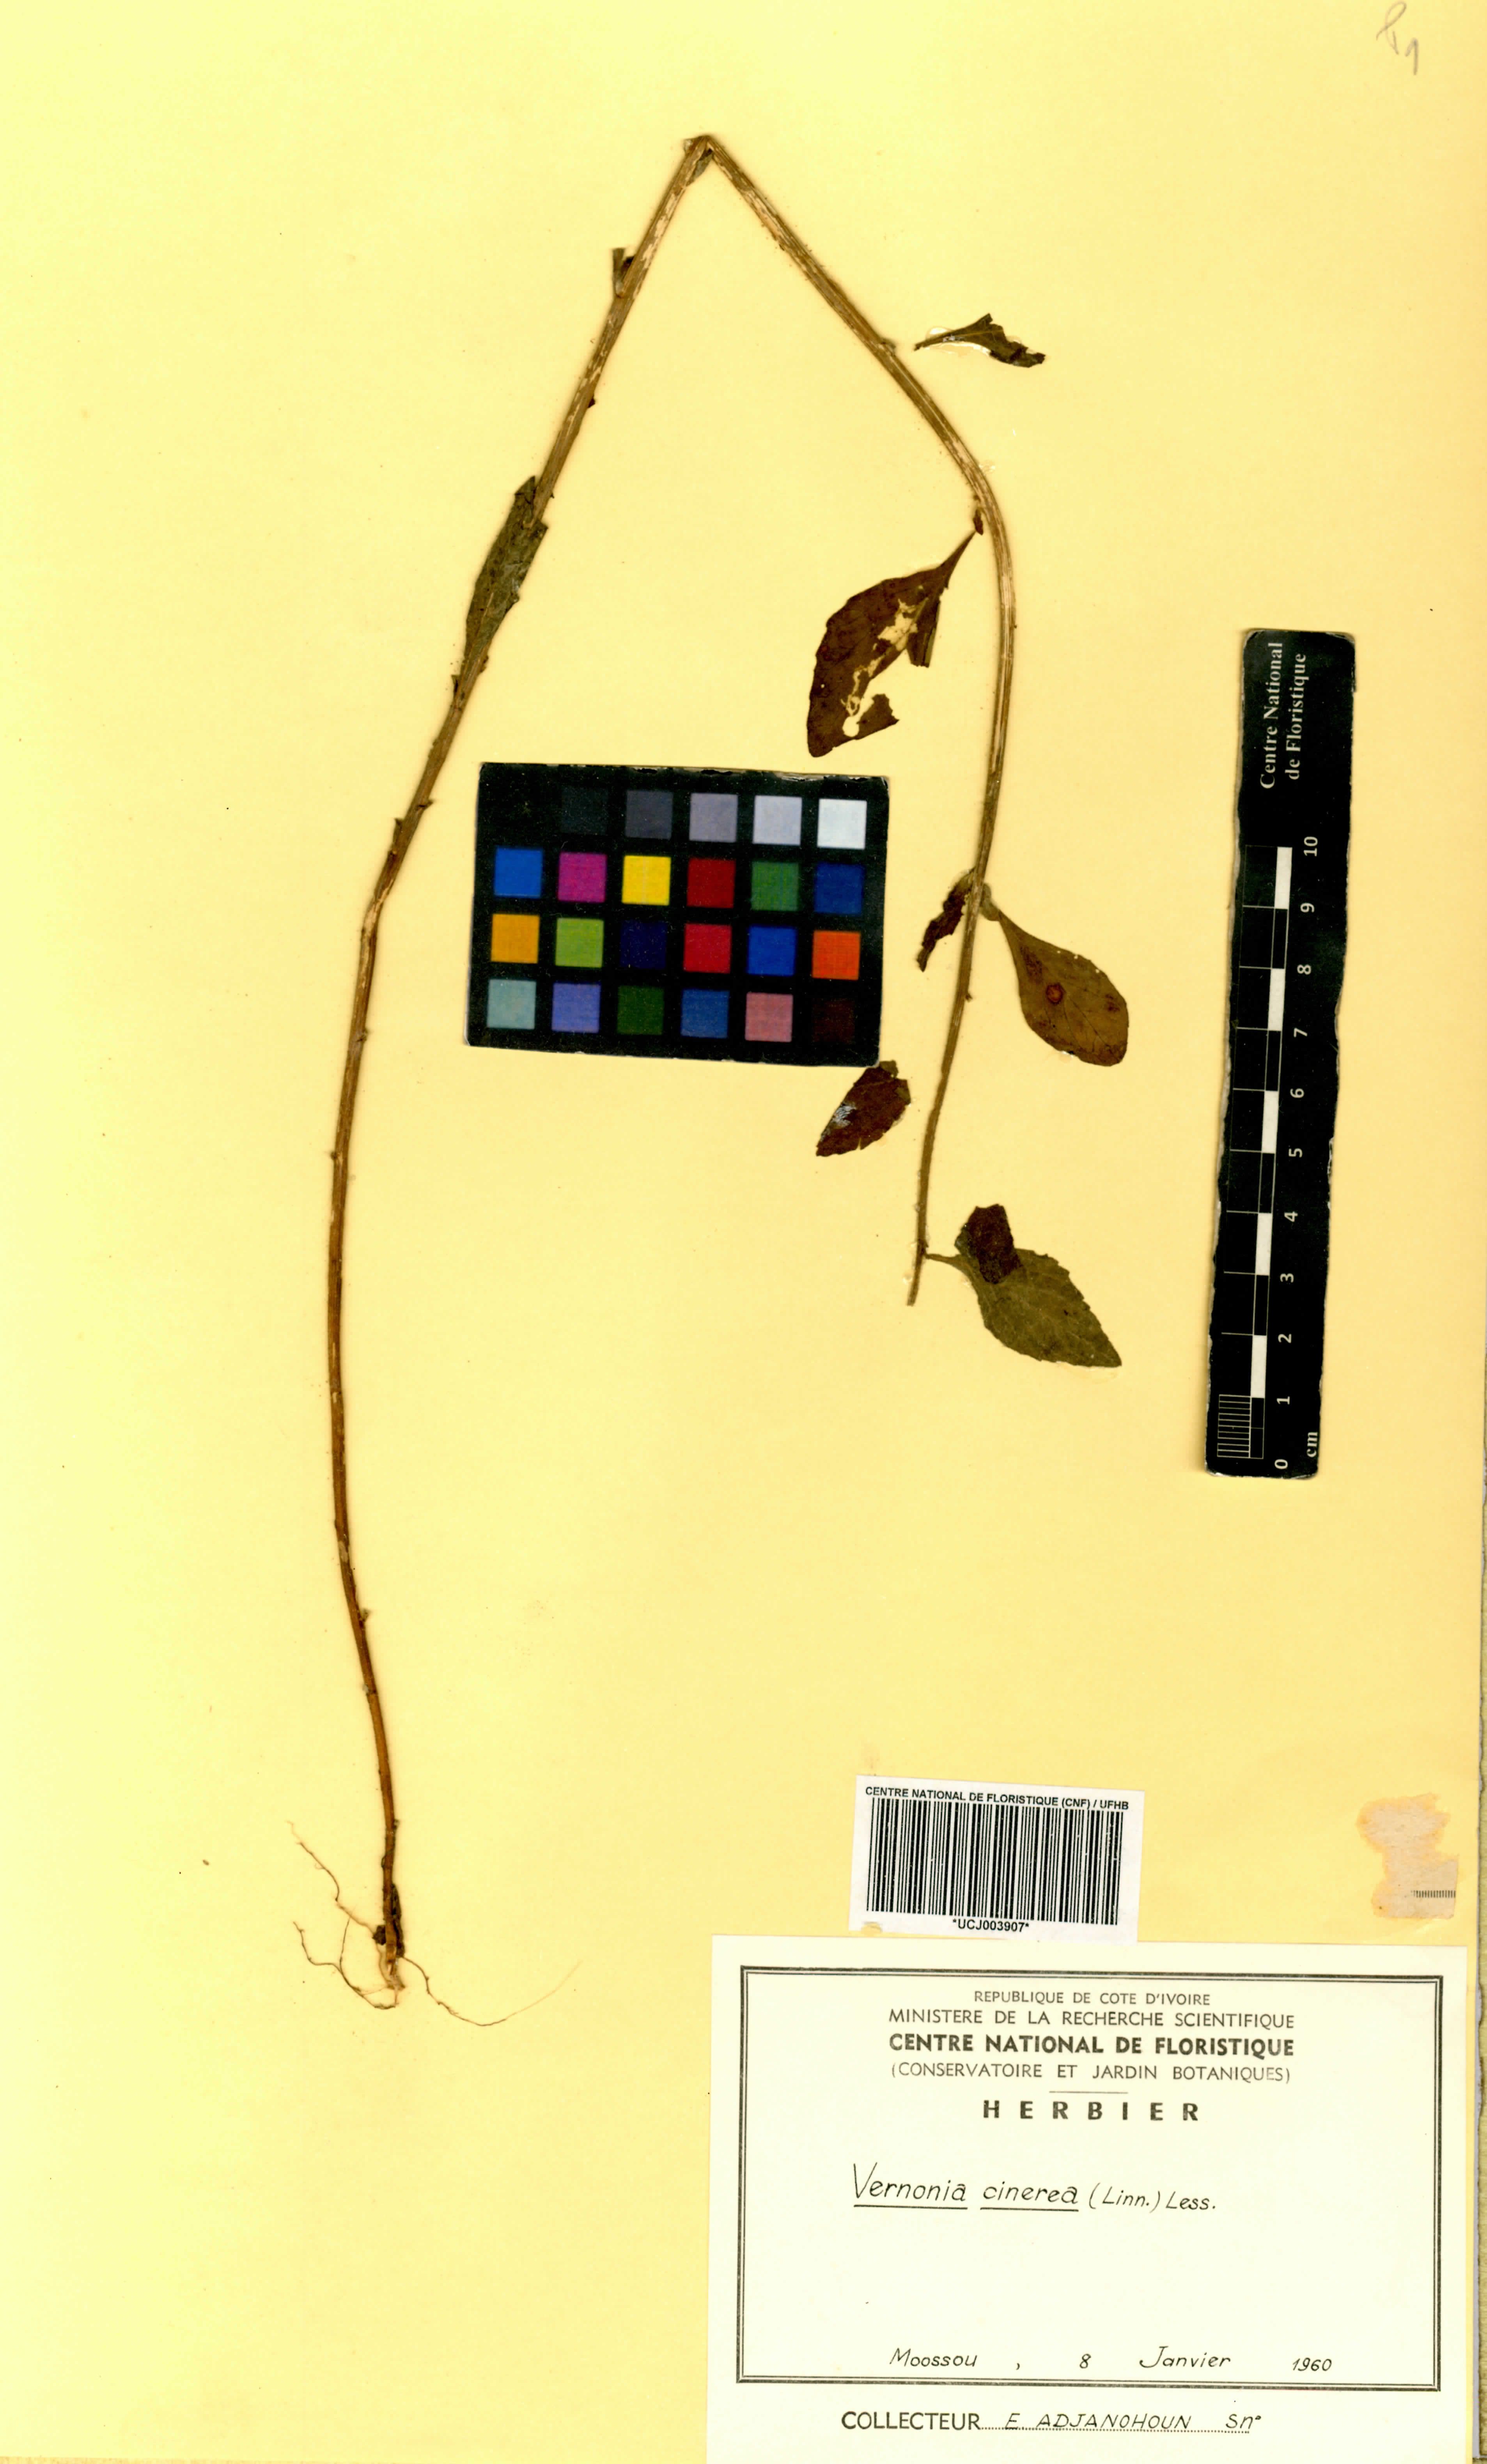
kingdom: Plantae
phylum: Tracheophyta
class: Magnoliopsida
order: Asterales
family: Asteraceae
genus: Cyanthillium
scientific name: Cyanthillium cinereum
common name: Little ironweed
